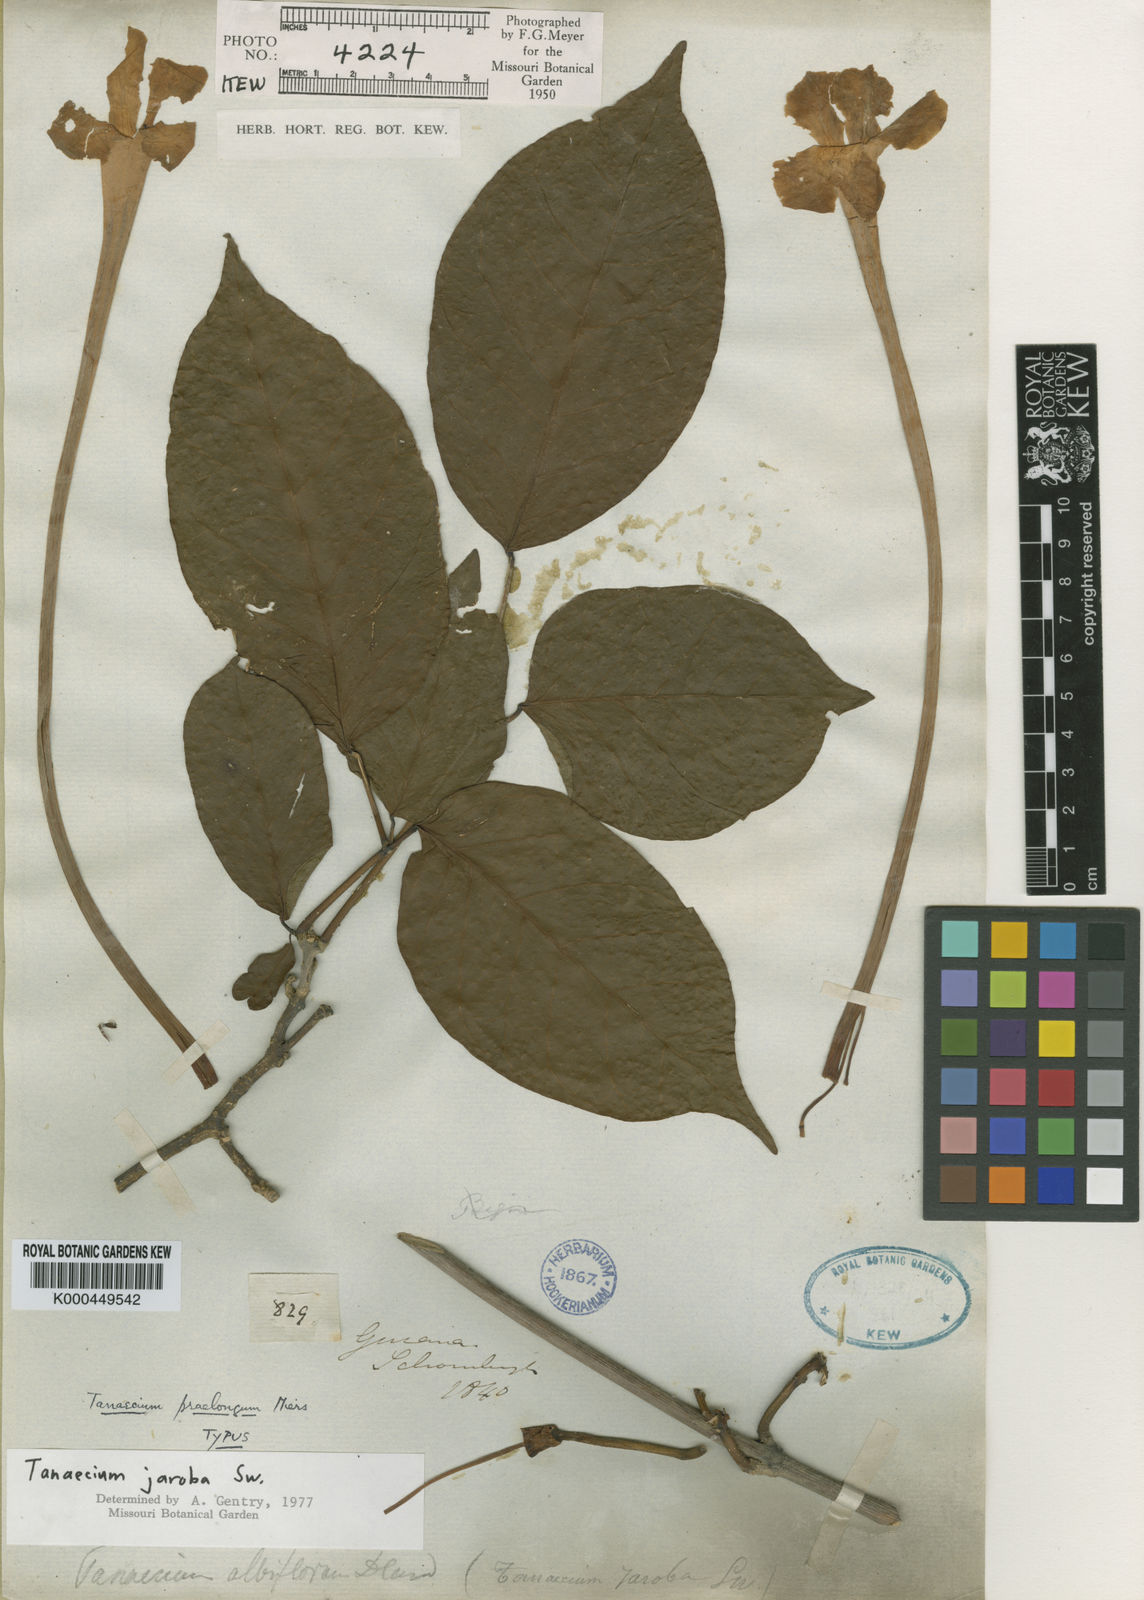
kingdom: Plantae
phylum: Tracheophyta
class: Magnoliopsida
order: Lamiales
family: Bignoniaceae
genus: Tanaecium
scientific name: Tanaecium jaroba
